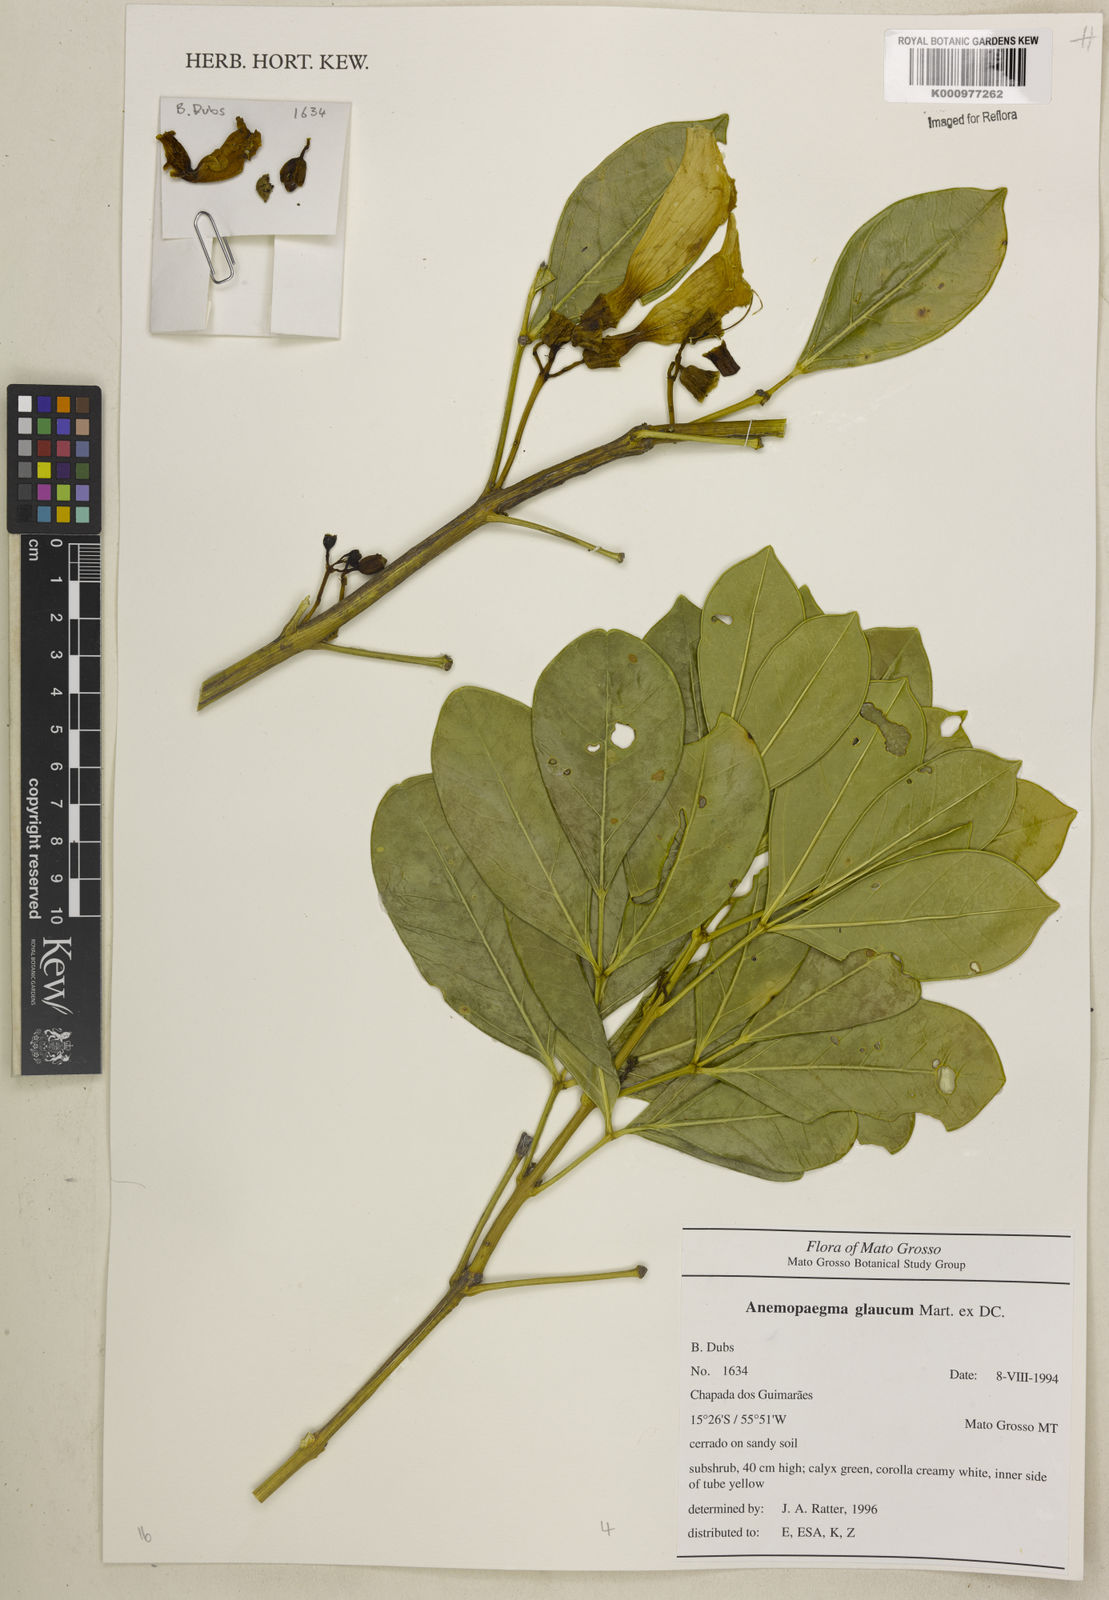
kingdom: Plantae
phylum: Tracheophyta
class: Magnoliopsida
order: Lamiales
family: Bignoniaceae
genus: Anemopaegma
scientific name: Anemopaegma glaucum
